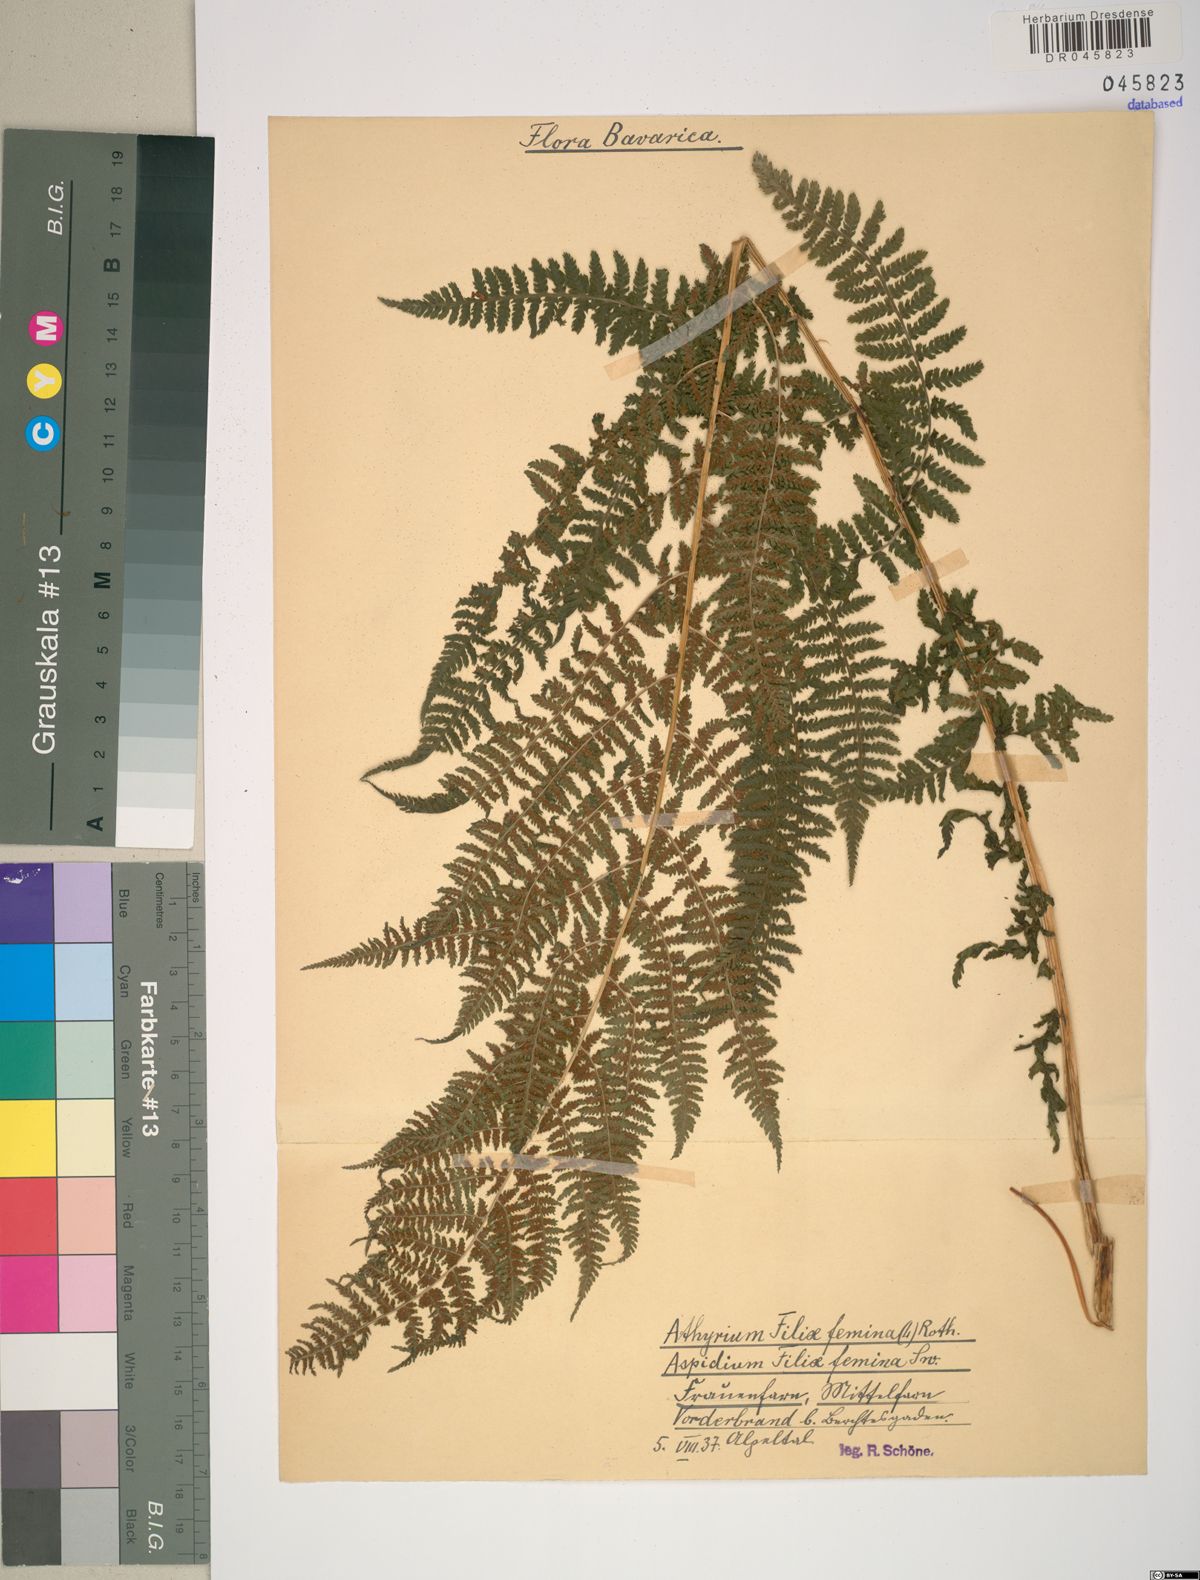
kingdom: Plantae
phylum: Tracheophyta
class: Polypodiopsida
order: Polypodiales
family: Athyriaceae
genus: Athyrium
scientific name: Athyrium filix-femina
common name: Lady fern
